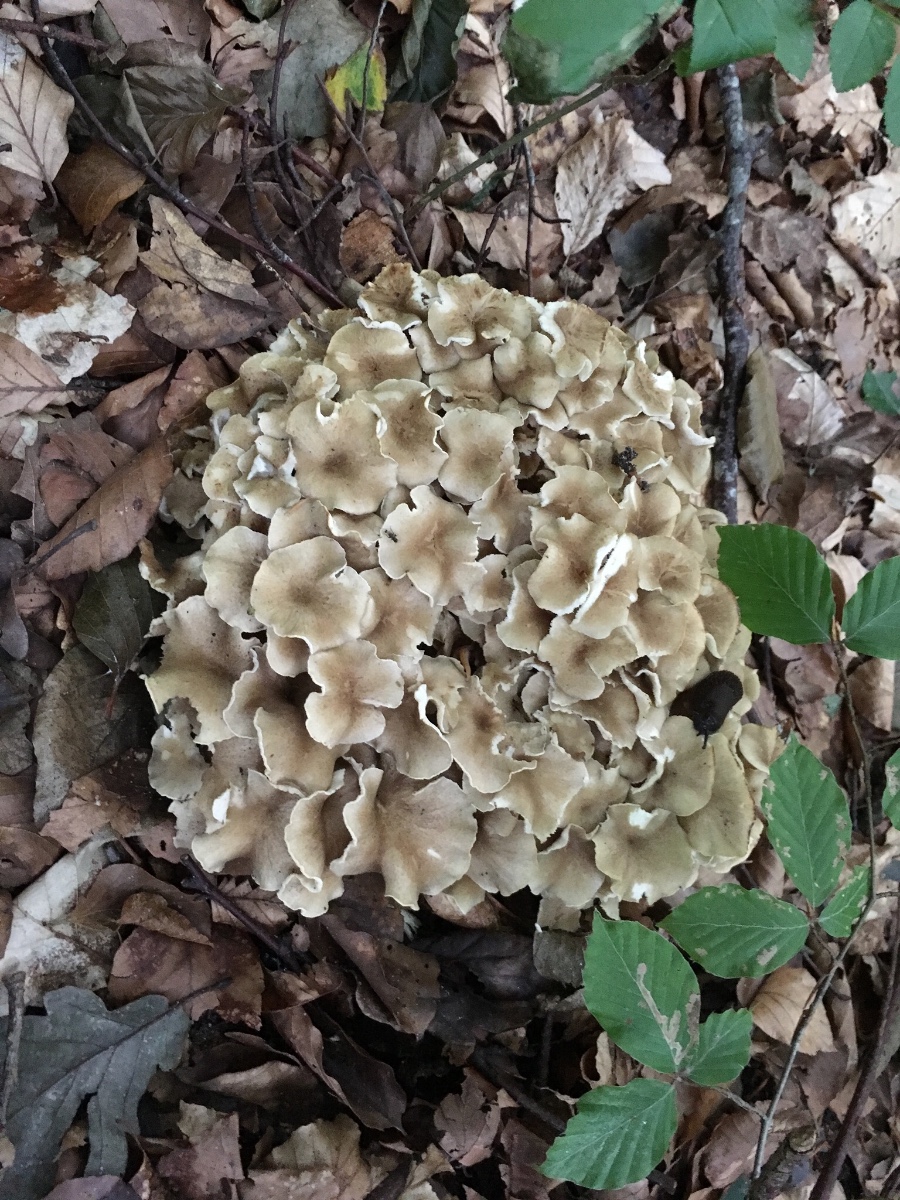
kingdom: Fungi
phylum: Basidiomycota
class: Agaricomycetes
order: Polyporales
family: Polyporaceae
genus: Polyporus
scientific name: Polyporus umbellatus
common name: skærmformet stilkporesvamp
